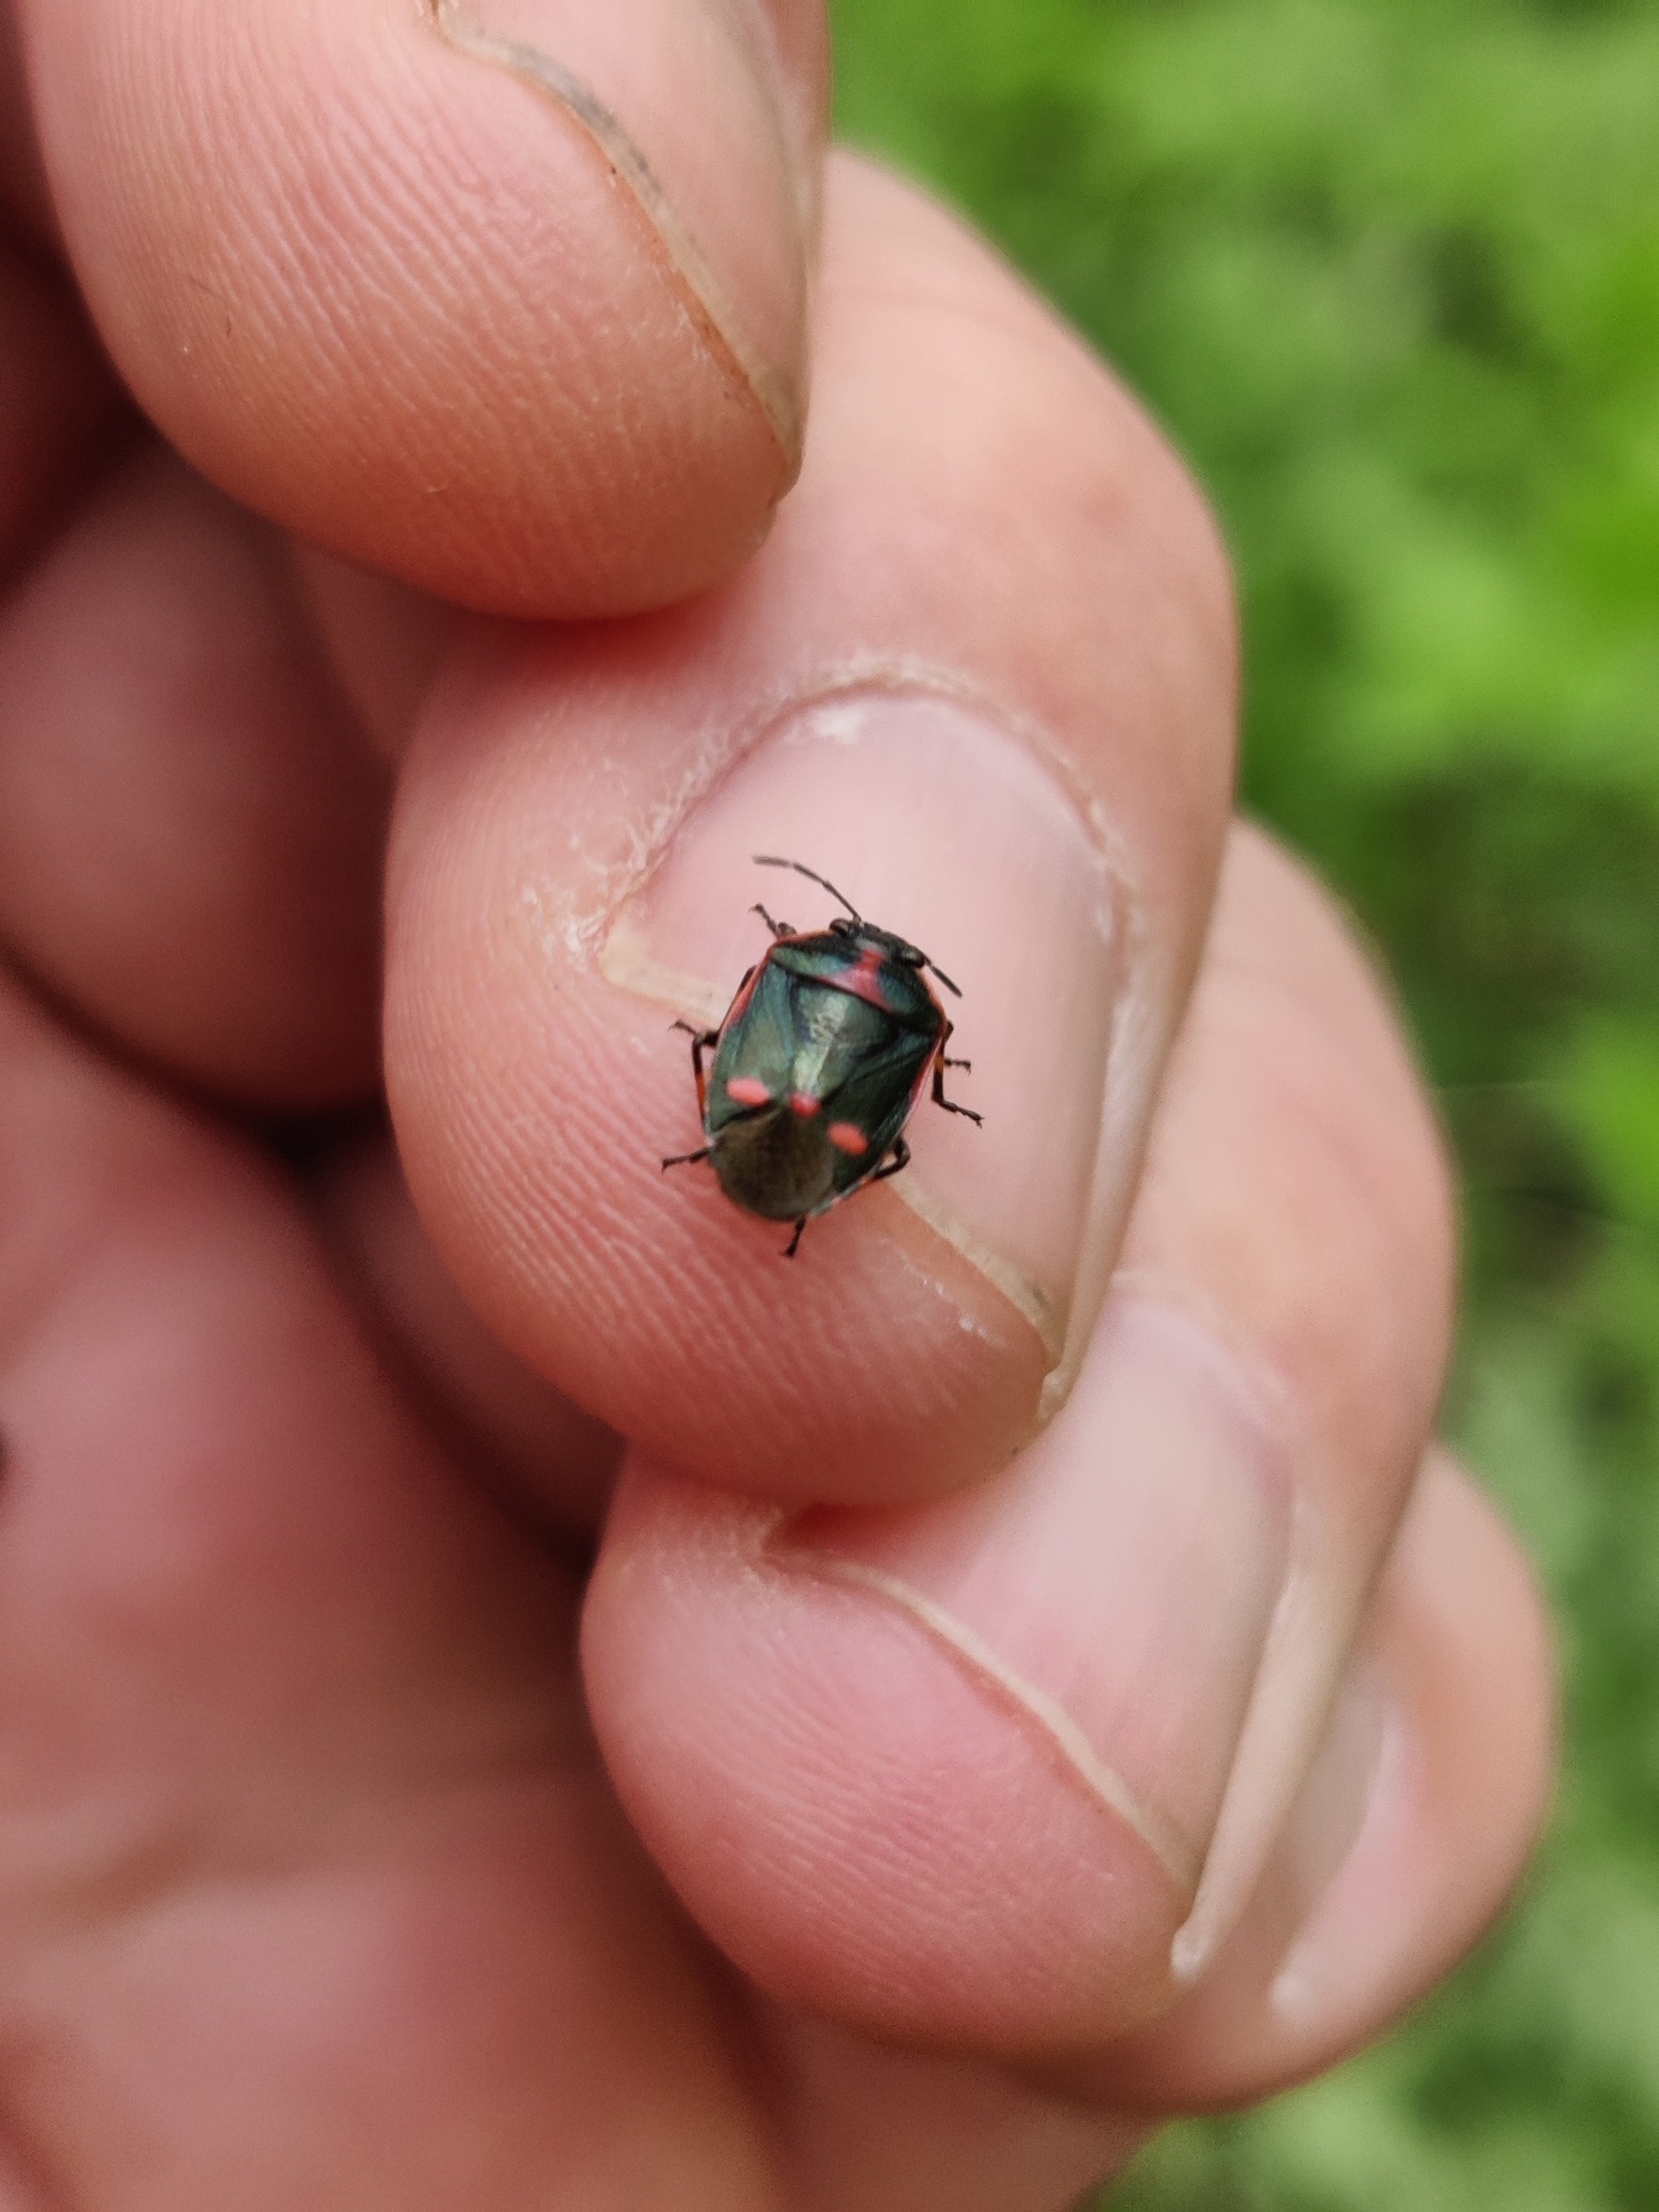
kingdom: Animalia
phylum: Arthropoda
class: Insecta
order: Hemiptera
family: Pentatomidae
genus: Eurydema
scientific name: Eurydema oleracea
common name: Almindelig kåltæge
